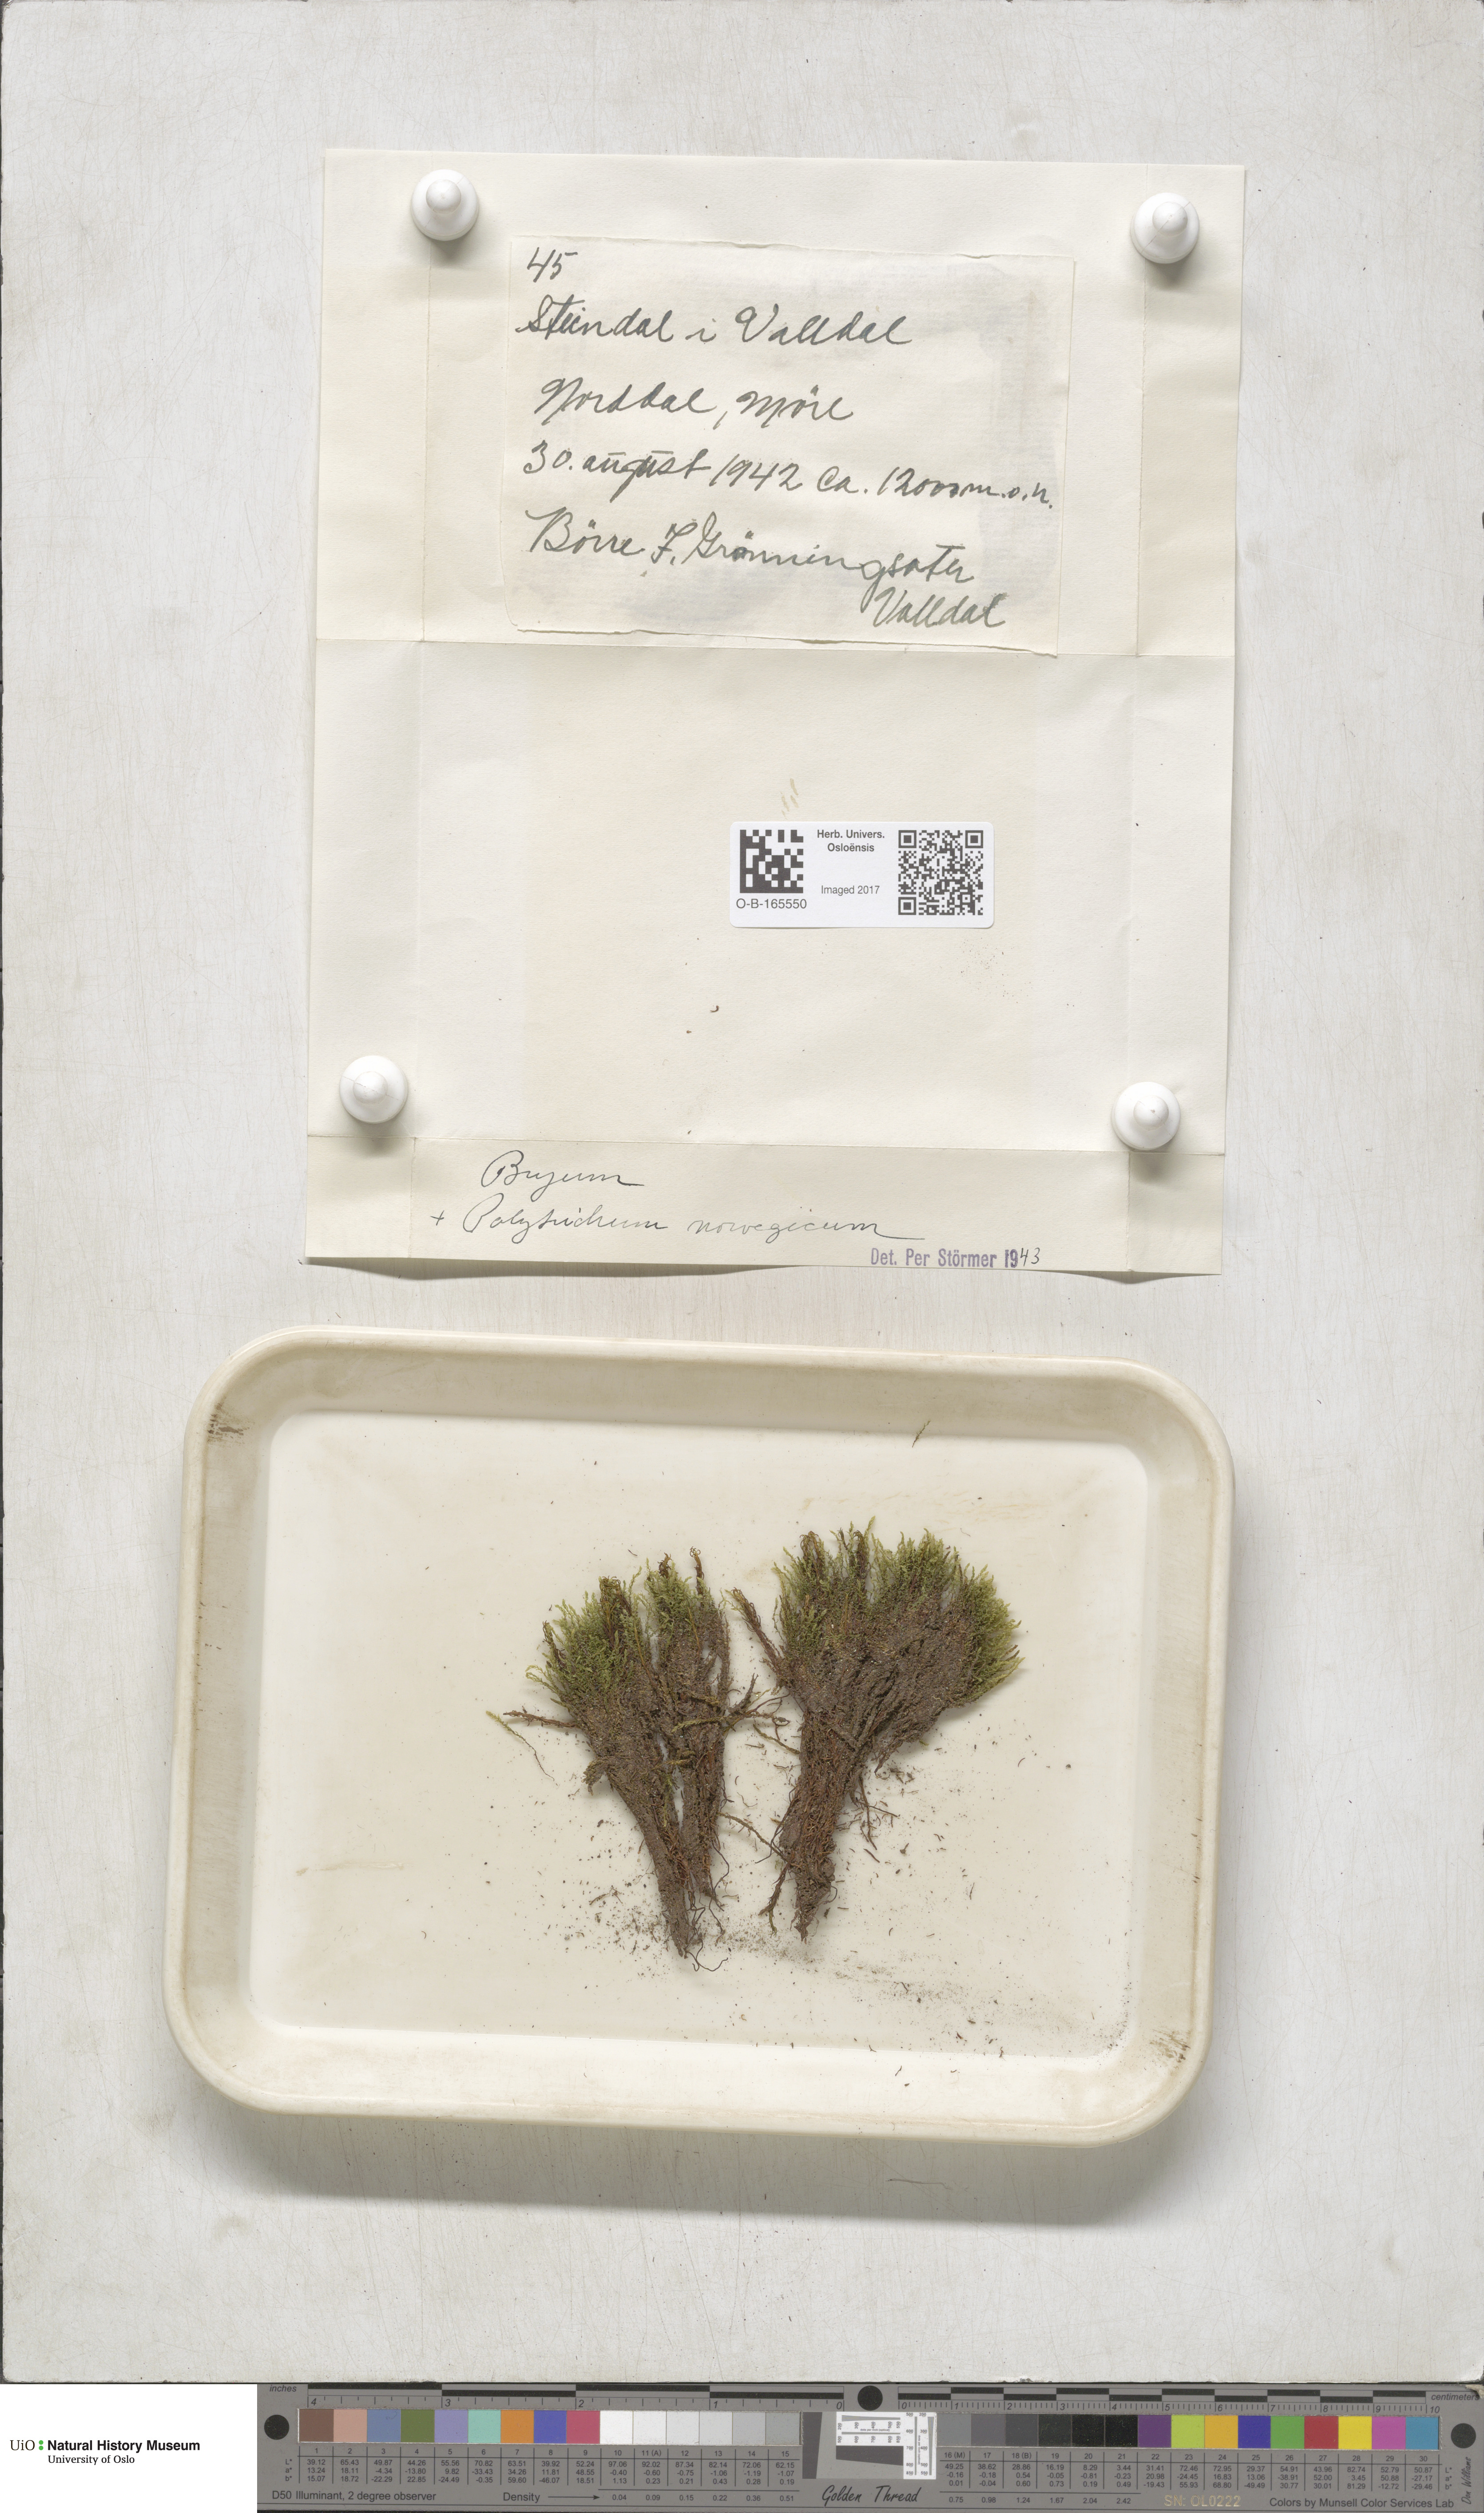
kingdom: Plantae
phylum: Bryophyta
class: Polytrichopsida
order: Polytrichales
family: Polytrichaceae
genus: Polytrichastrum
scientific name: Polytrichastrum sexangulare
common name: Northern haircap
